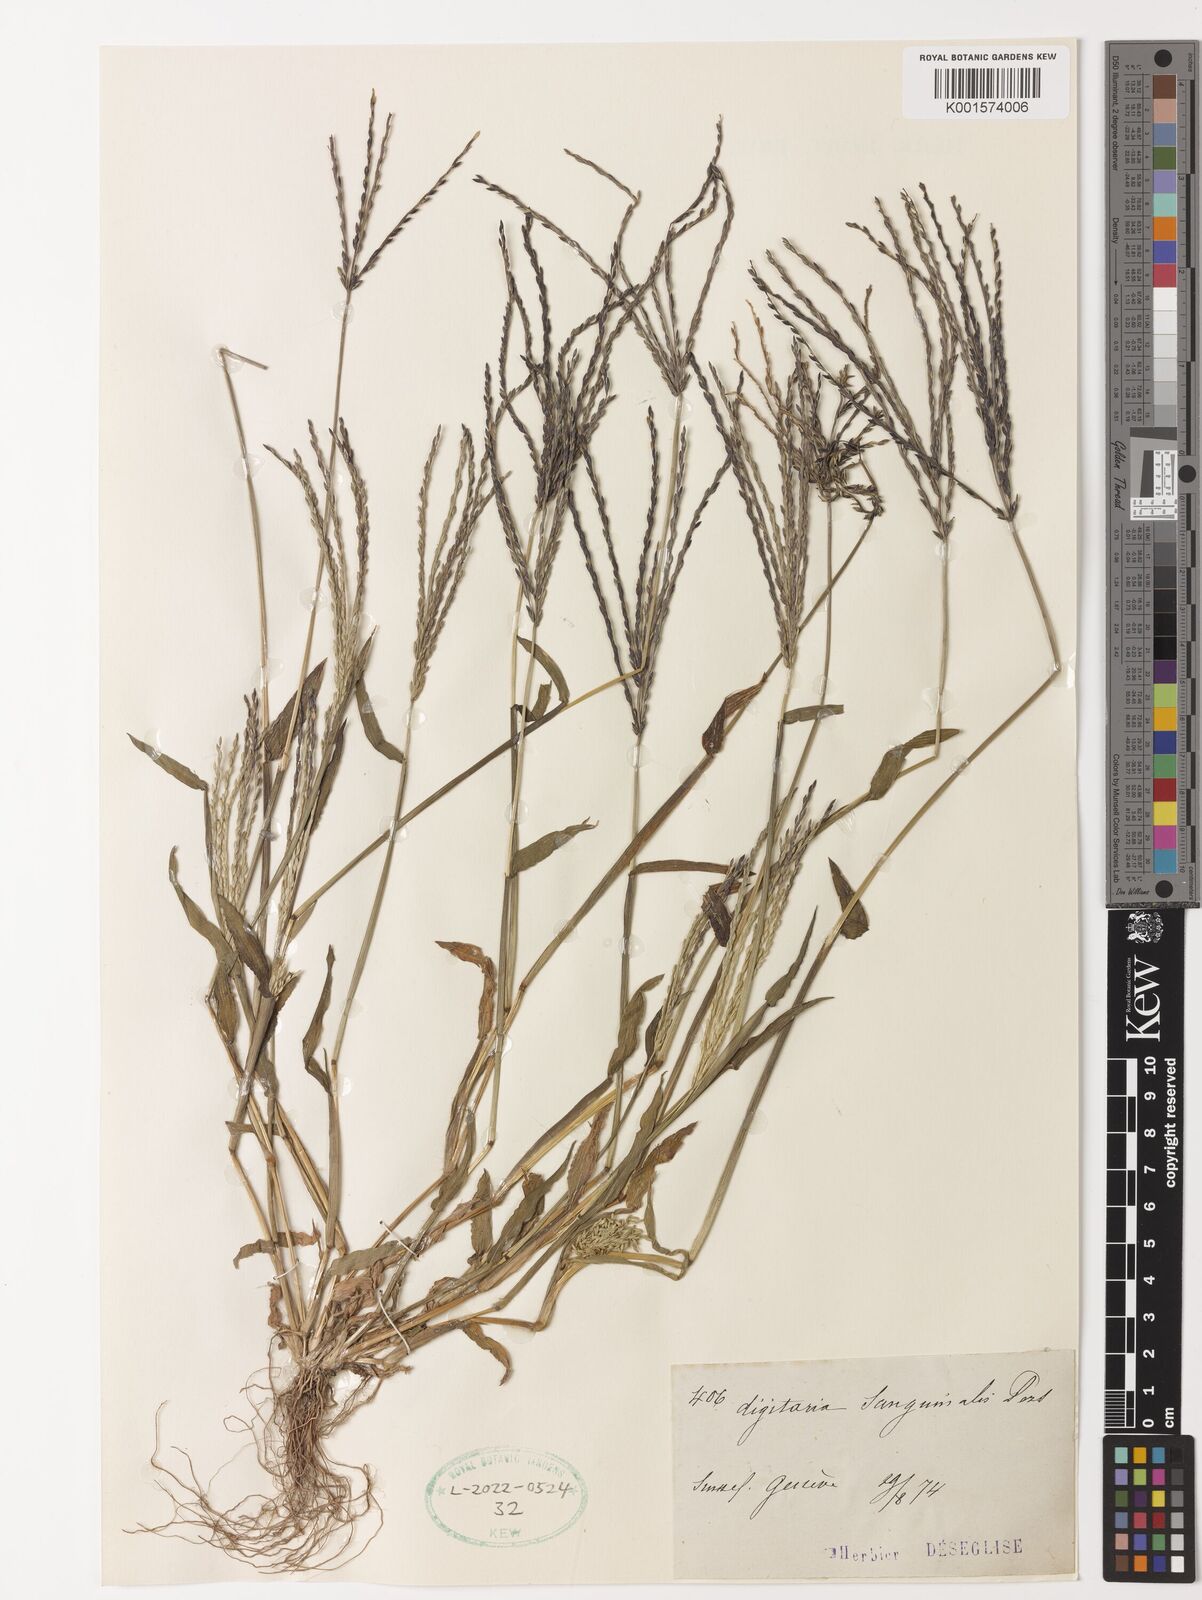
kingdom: Plantae
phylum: Tracheophyta
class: Liliopsida
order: Poales
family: Poaceae
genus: Digitaria
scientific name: Digitaria sanguinalis
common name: Hairy crabgrass
